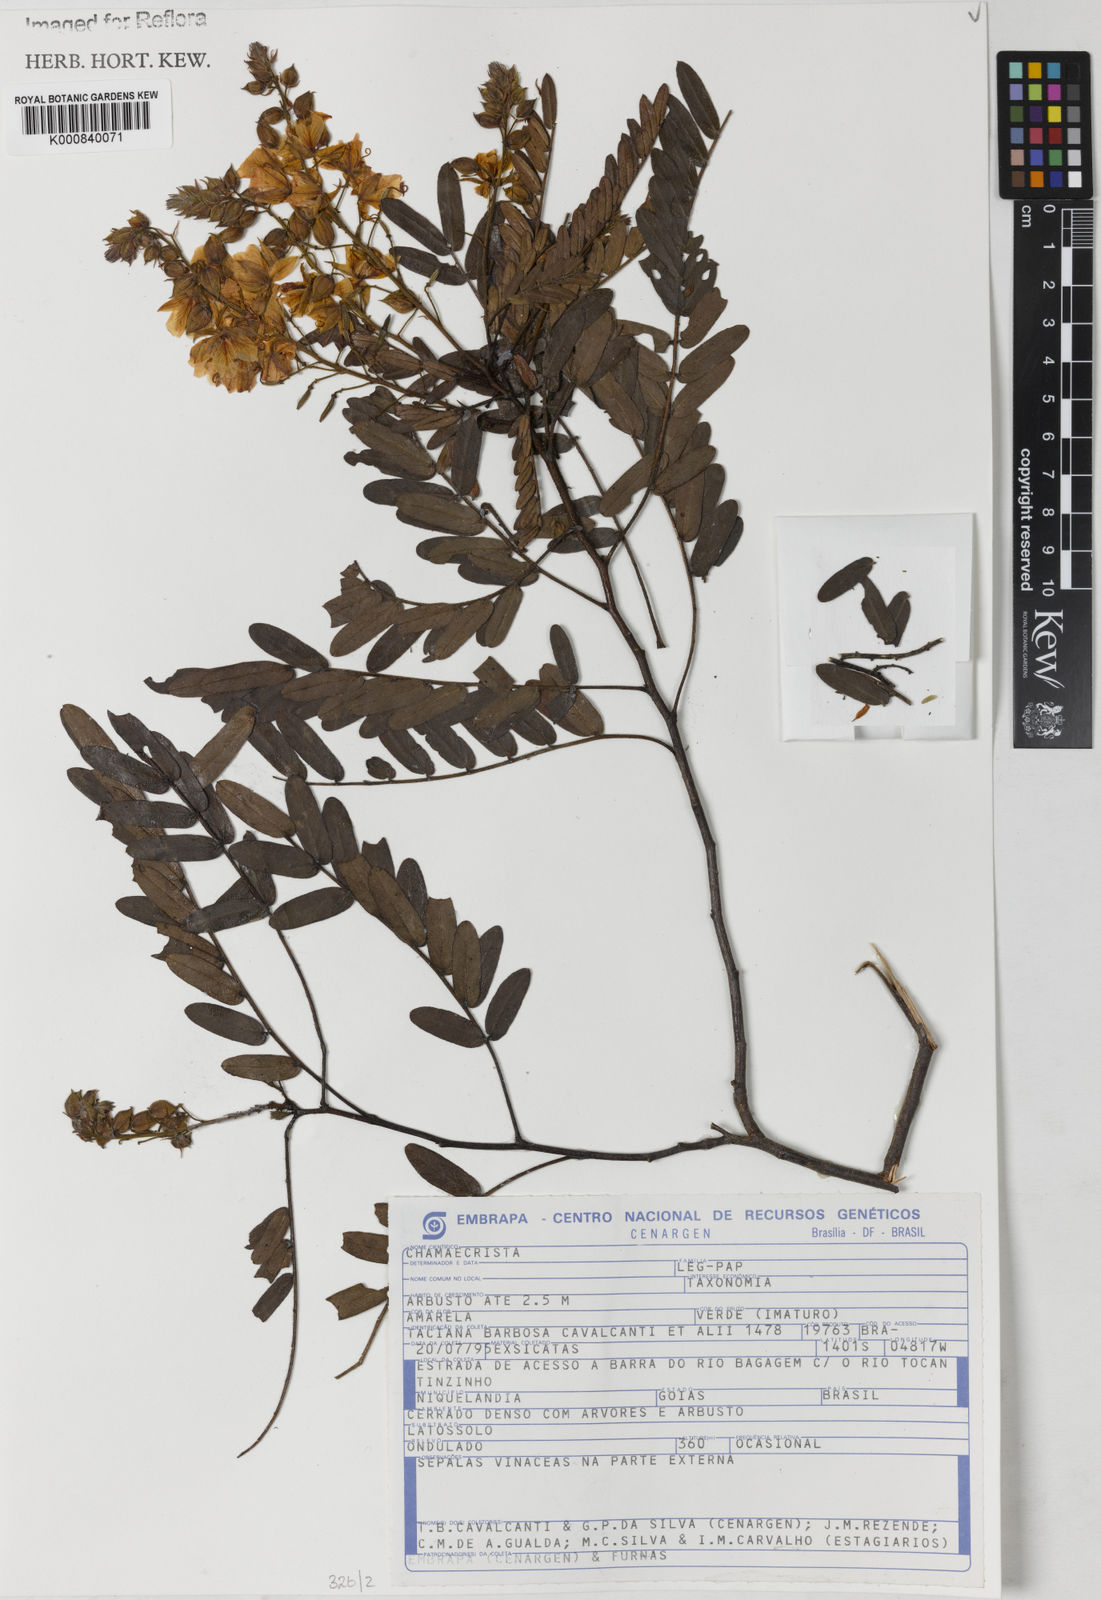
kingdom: Plantae
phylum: Tracheophyta
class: Magnoliopsida
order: Fabales
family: Fabaceae
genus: Chamaecrista
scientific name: Chamaecrista
